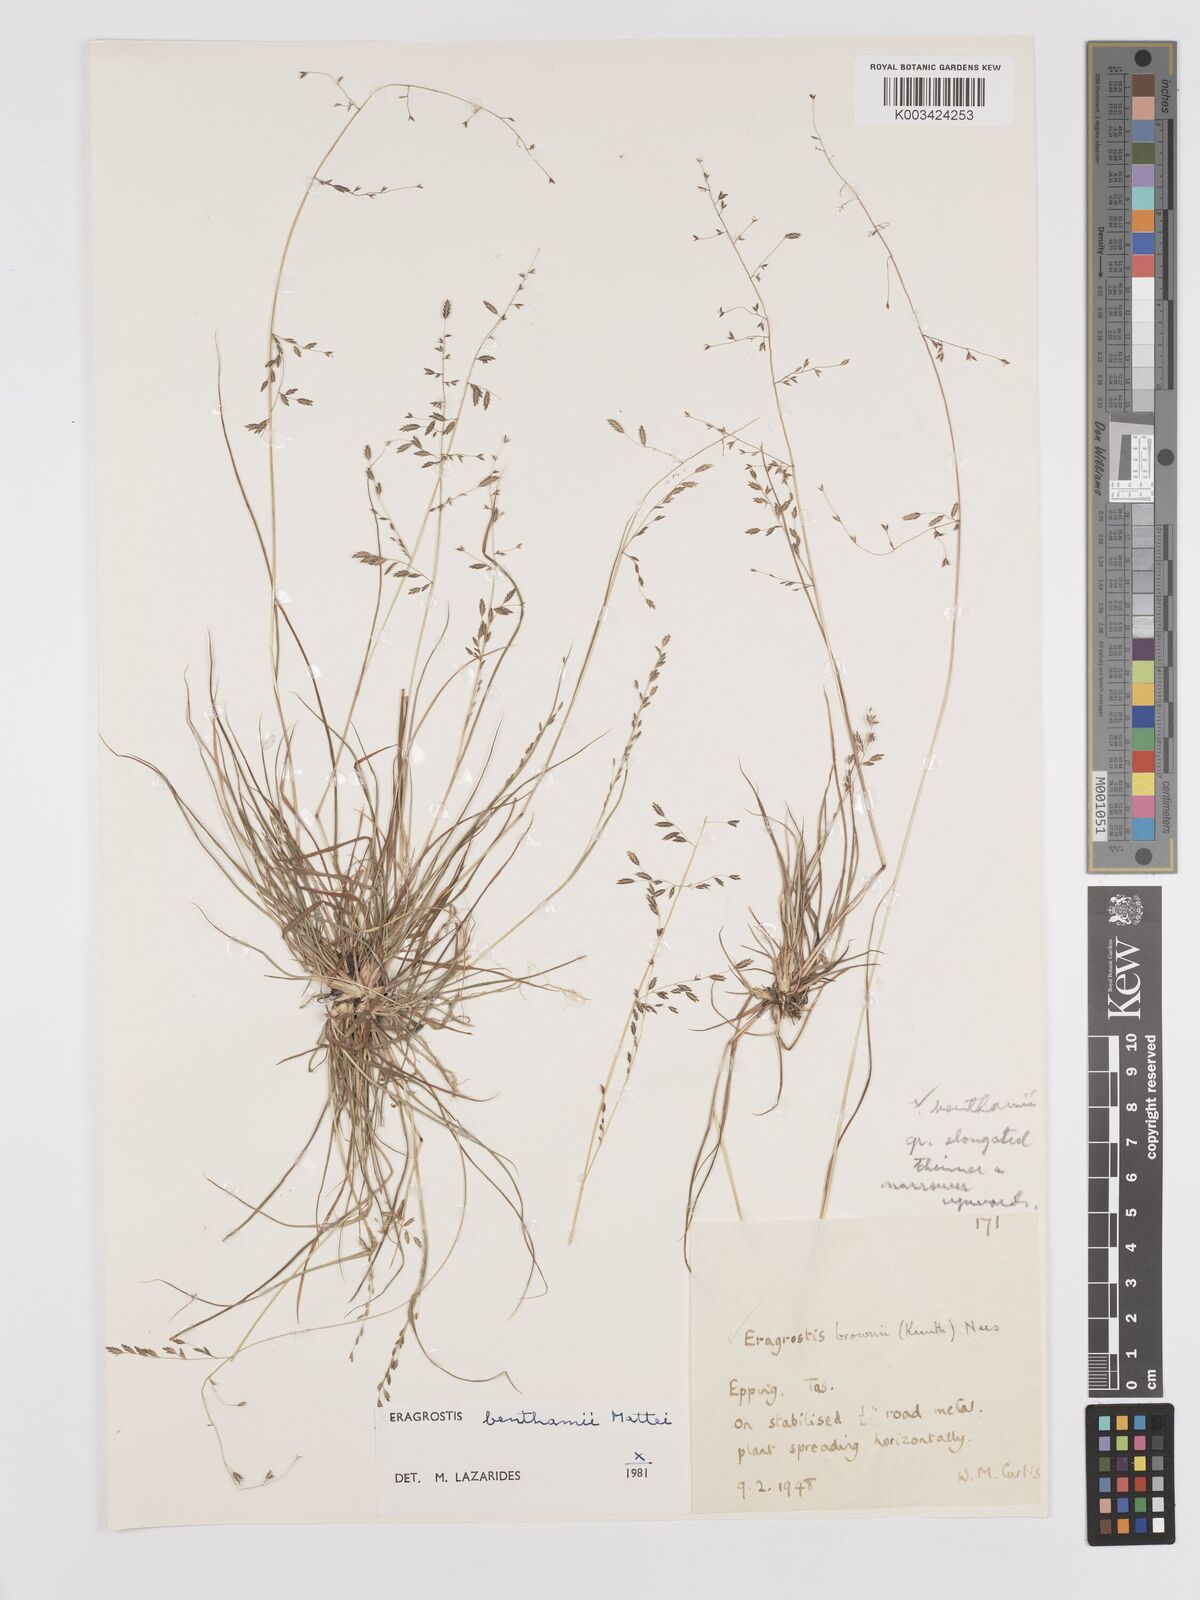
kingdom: Plantae
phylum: Tracheophyta
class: Liliopsida
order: Poales
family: Poaceae
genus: Eragrostis
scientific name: Eragrostis brownii
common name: Lovegrass
